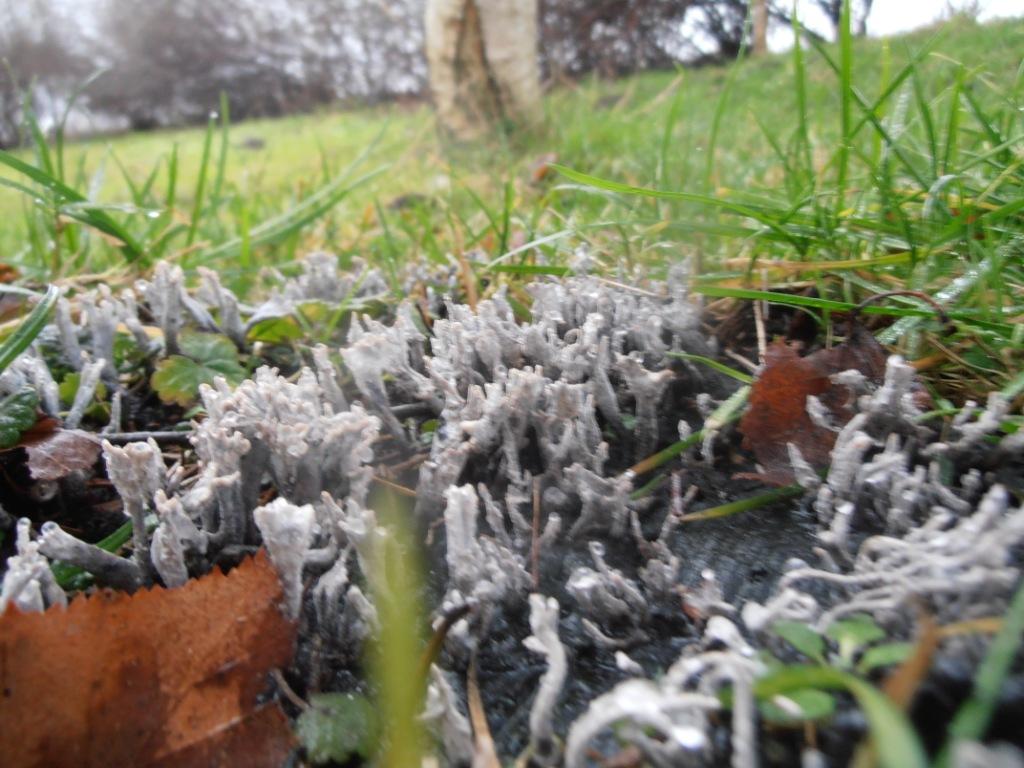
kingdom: Fungi
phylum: Ascomycota
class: Sordariomycetes
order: Xylariales
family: Xylariaceae
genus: Xylaria
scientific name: Xylaria hypoxylon
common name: grenet stødsvamp
